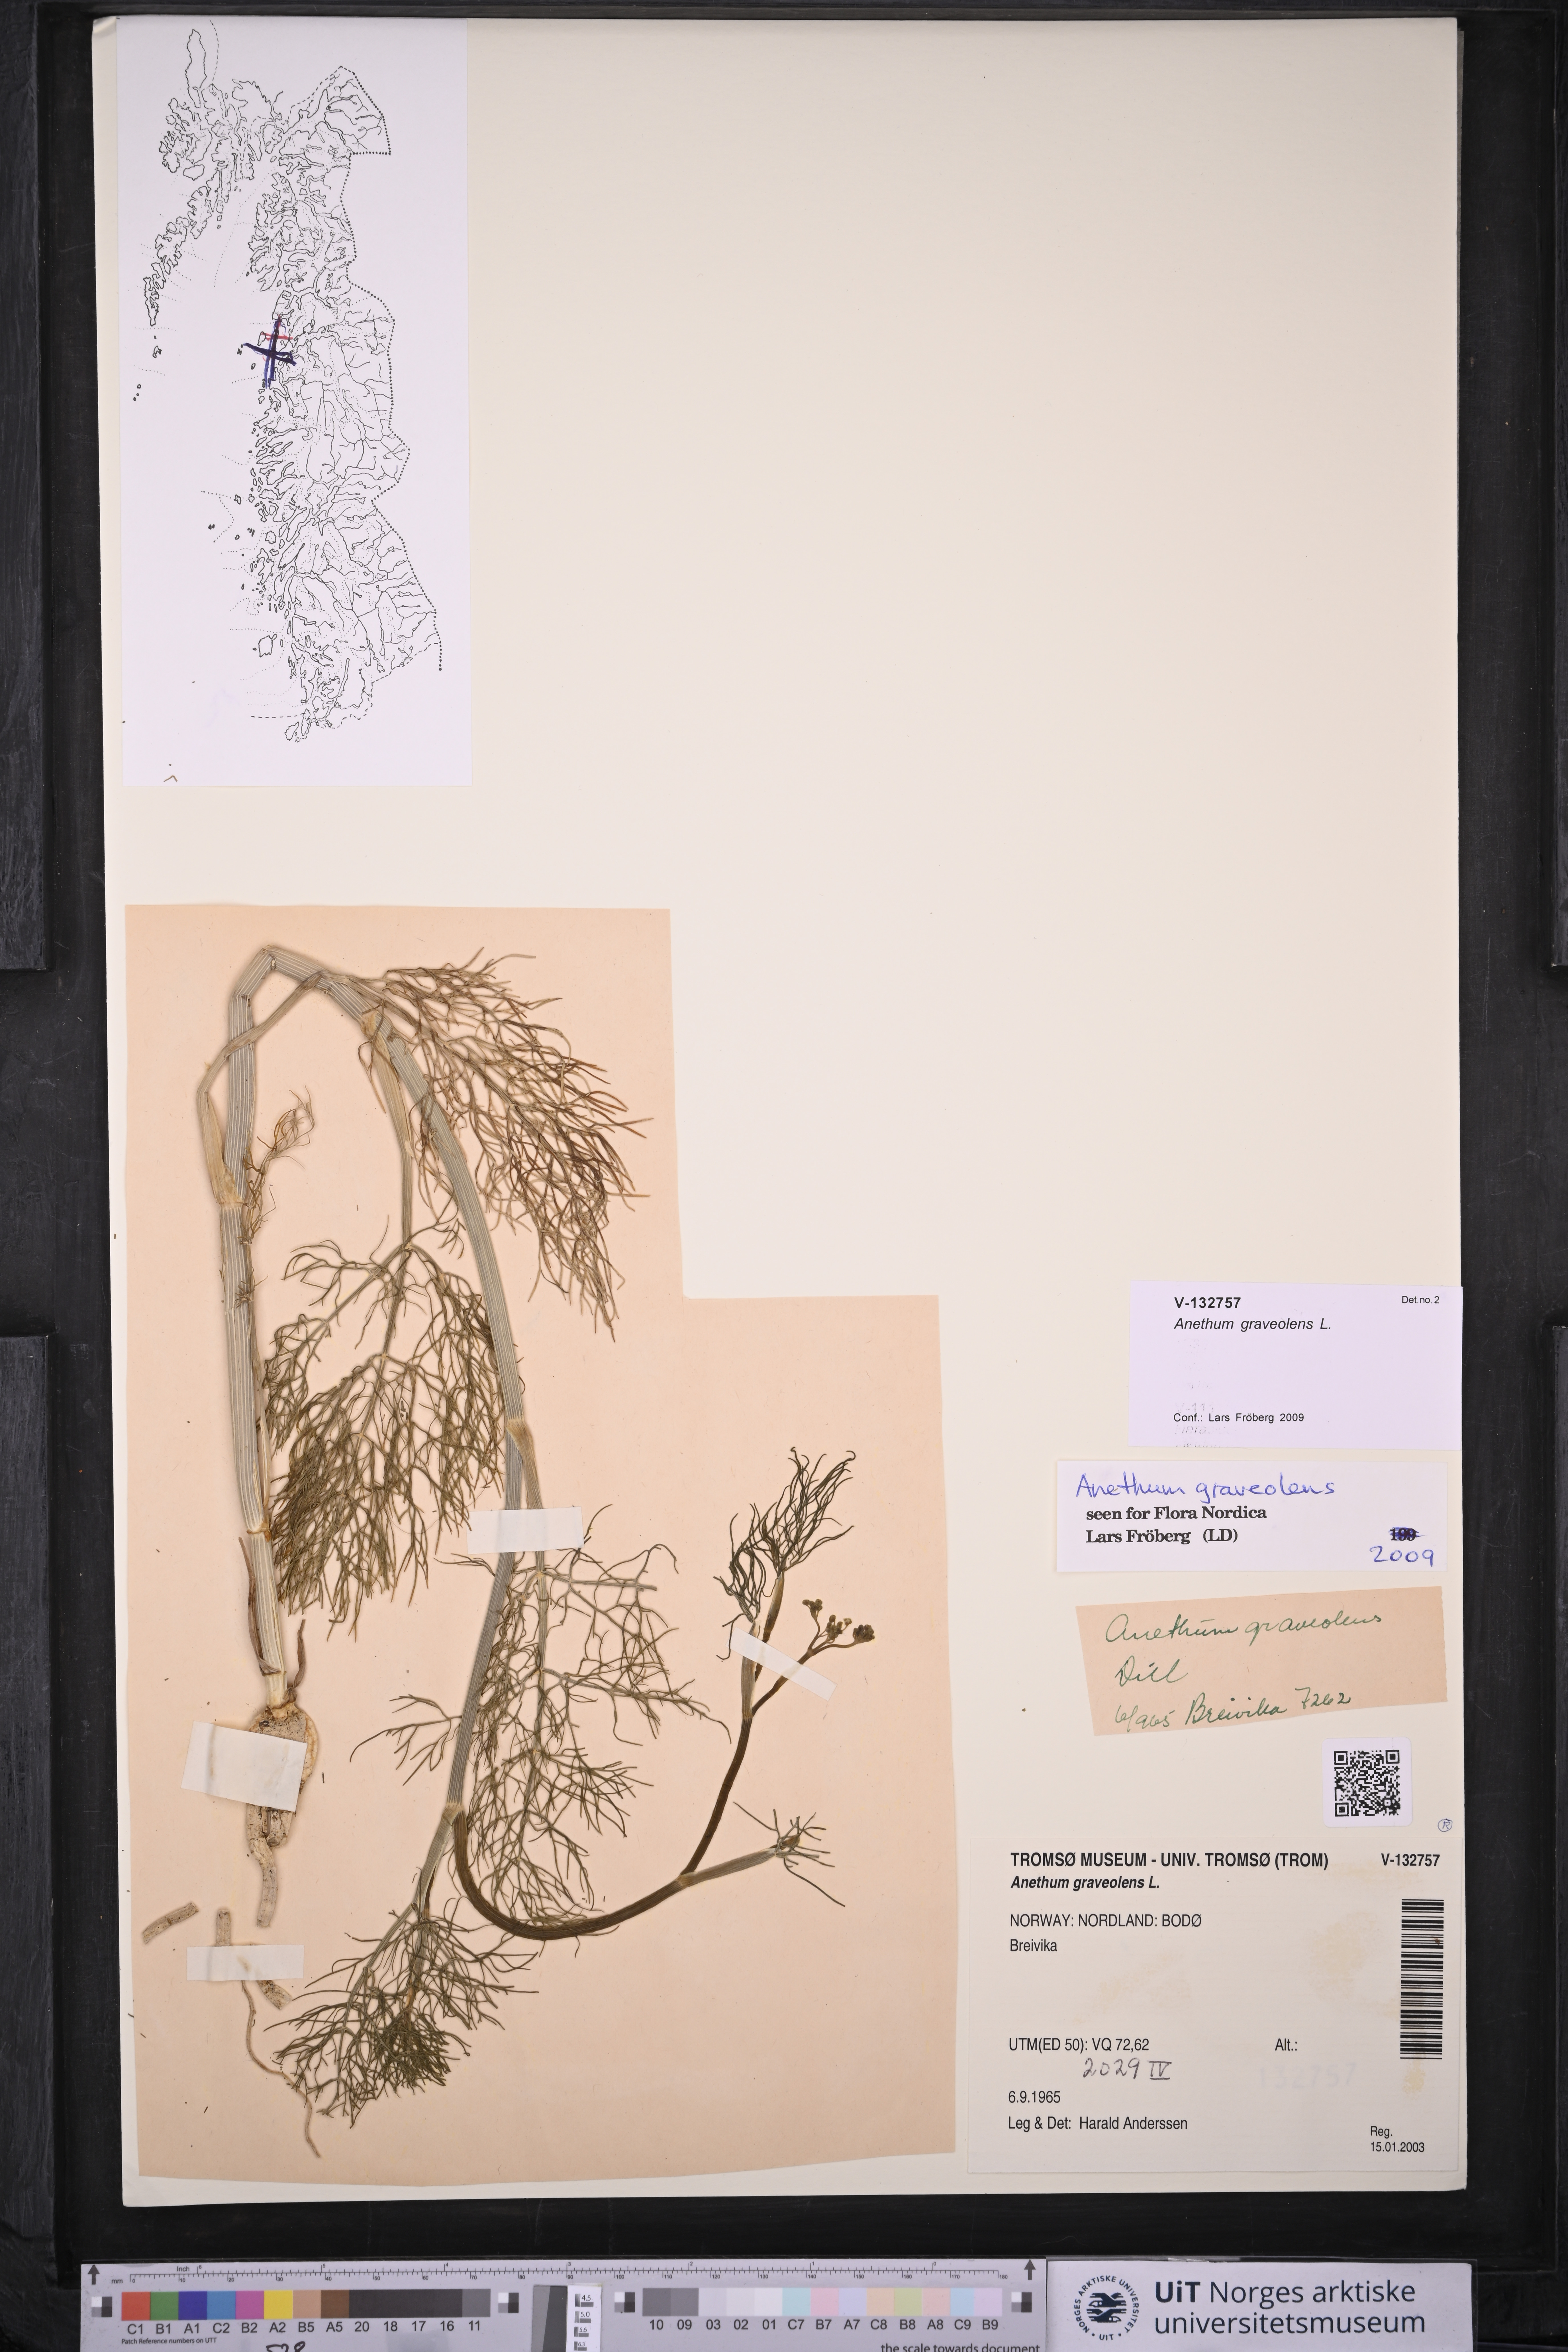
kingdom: Plantae
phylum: Tracheophyta
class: Magnoliopsida
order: Apiales
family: Apiaceae
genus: Anethum
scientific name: Anethum graveolens
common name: Dill
